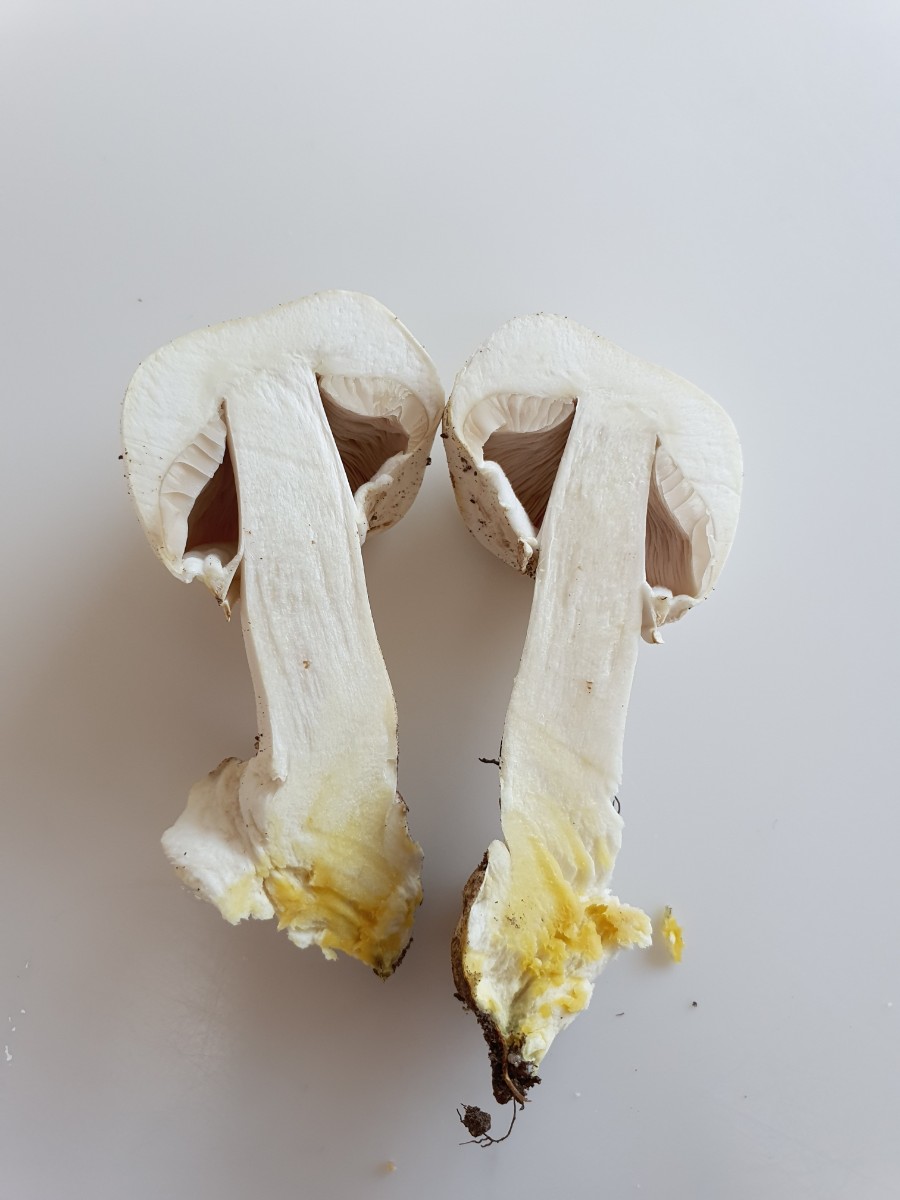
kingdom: Fungi
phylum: Basidiomycota
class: Agaricomycetes
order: Agaricales
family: Agaricaceae
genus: Agaricus
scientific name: Agaricus xanthodermus
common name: karbol-champignon
